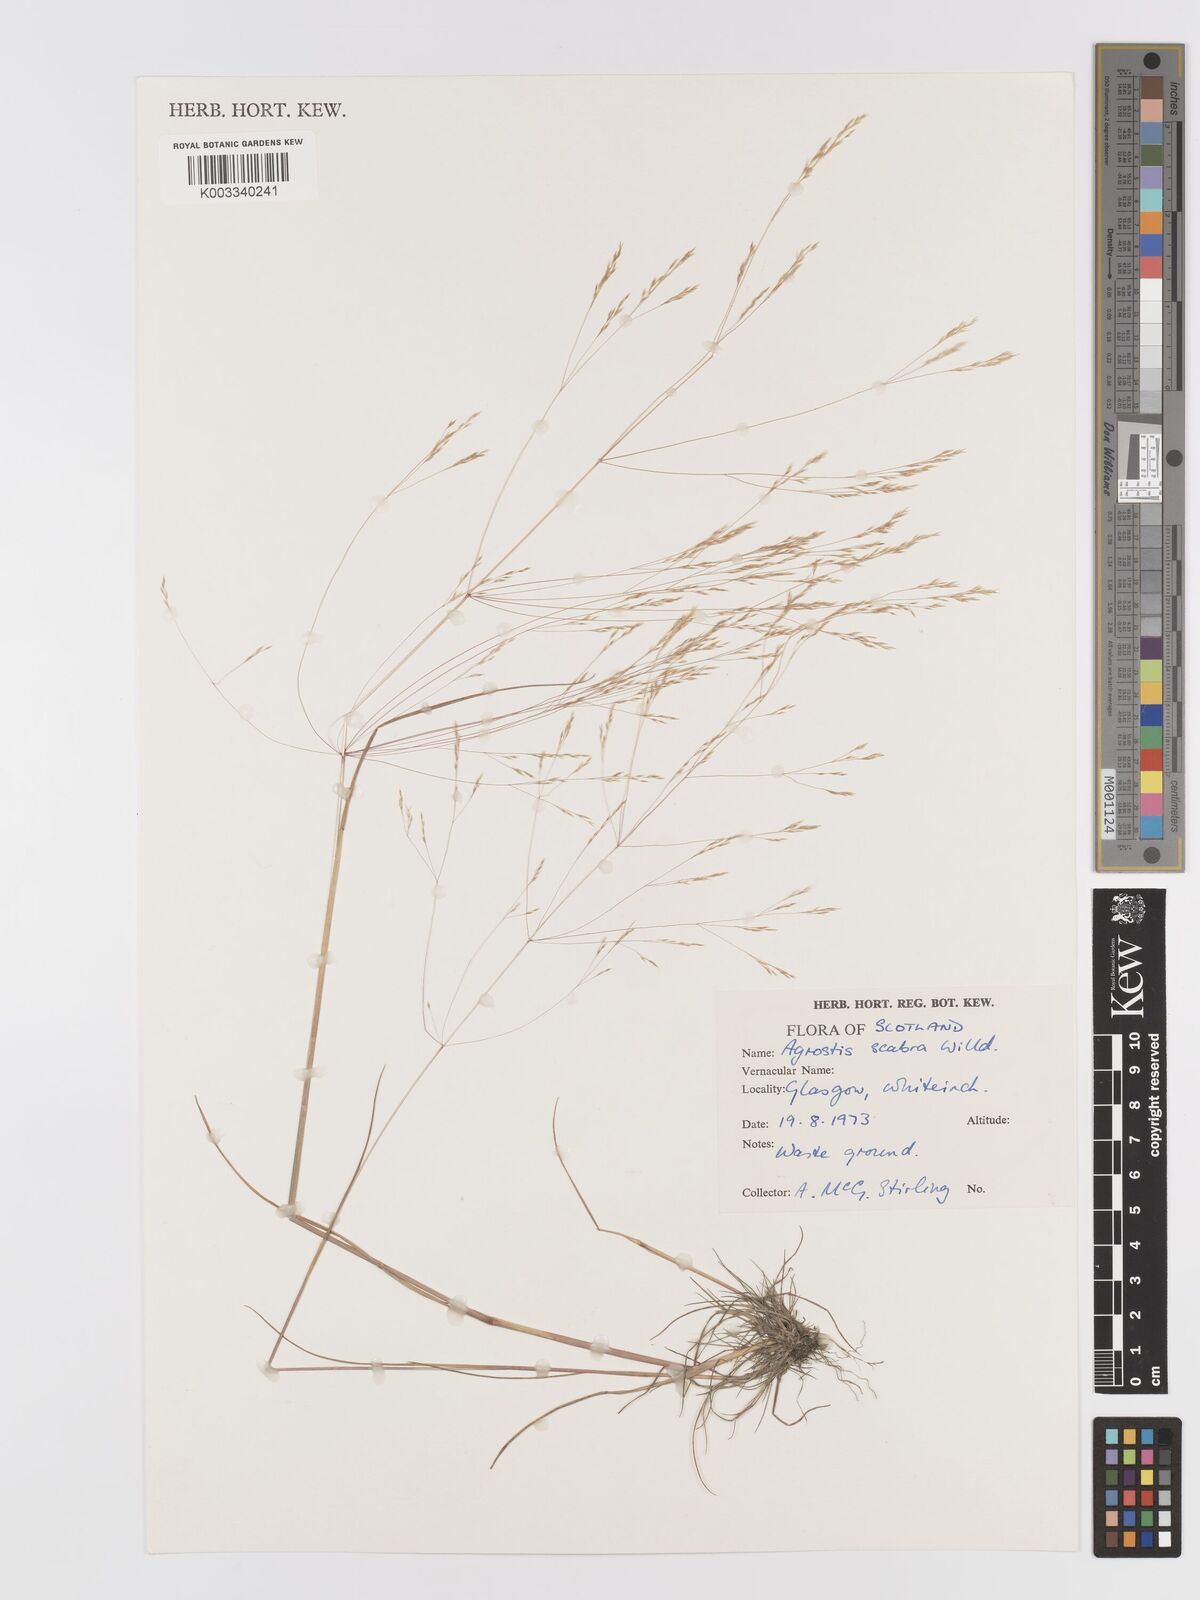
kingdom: Plantae
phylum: Tracheophyta
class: Liliopsida
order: Poales
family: Poaceae
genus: Agrostis
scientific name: Agrostis scabra
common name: Rough bent
